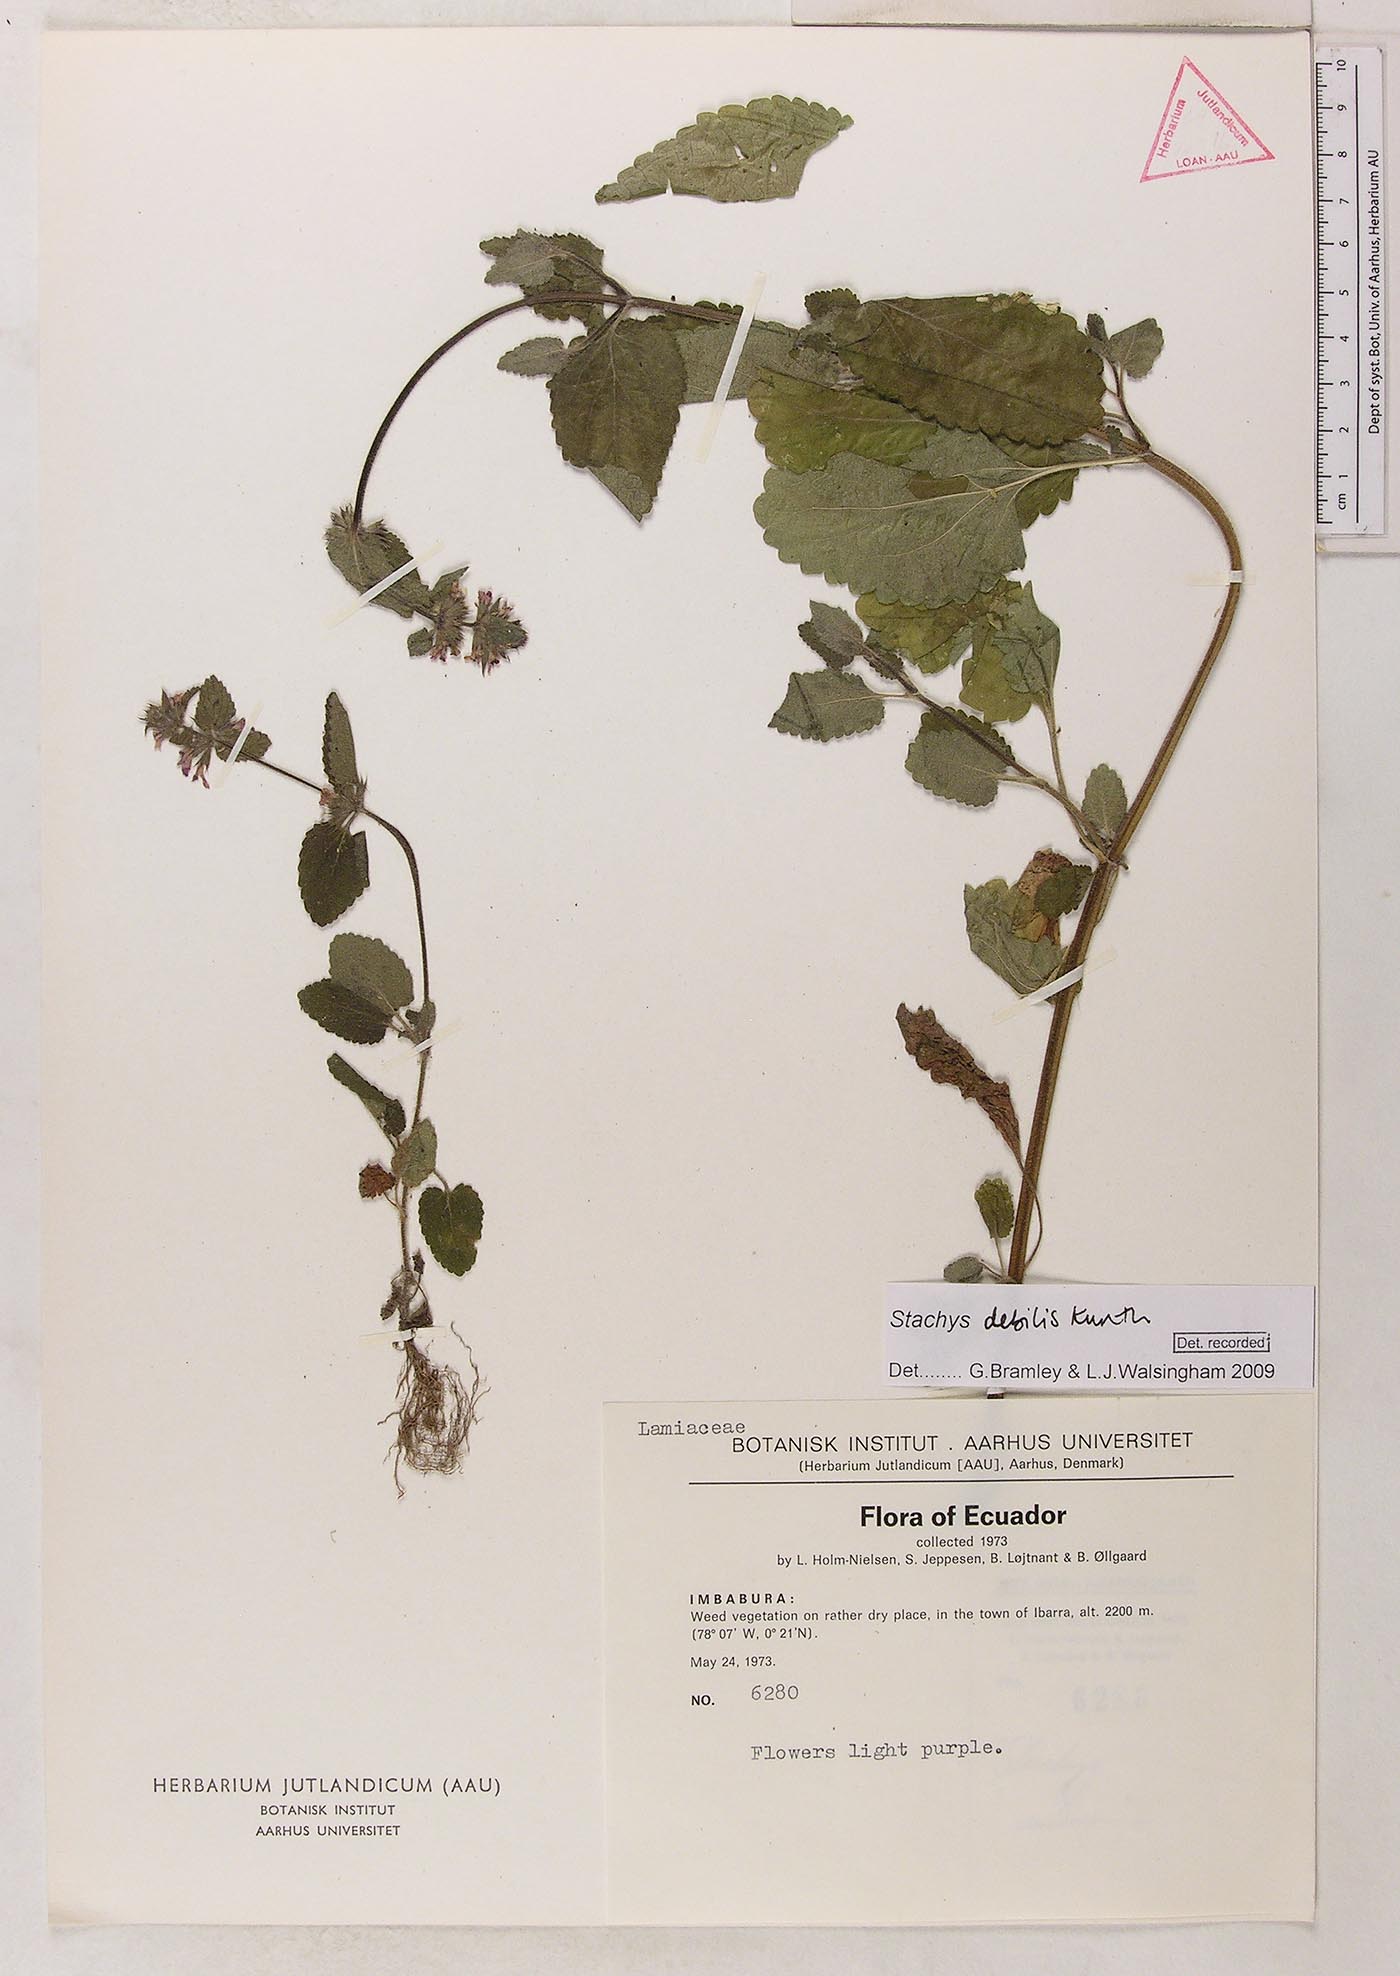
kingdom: Plantae
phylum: Tracheophyta
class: Magnoliopsida
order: Lamiales
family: Lamiaceae
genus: Stachys
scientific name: Stachys debilis
